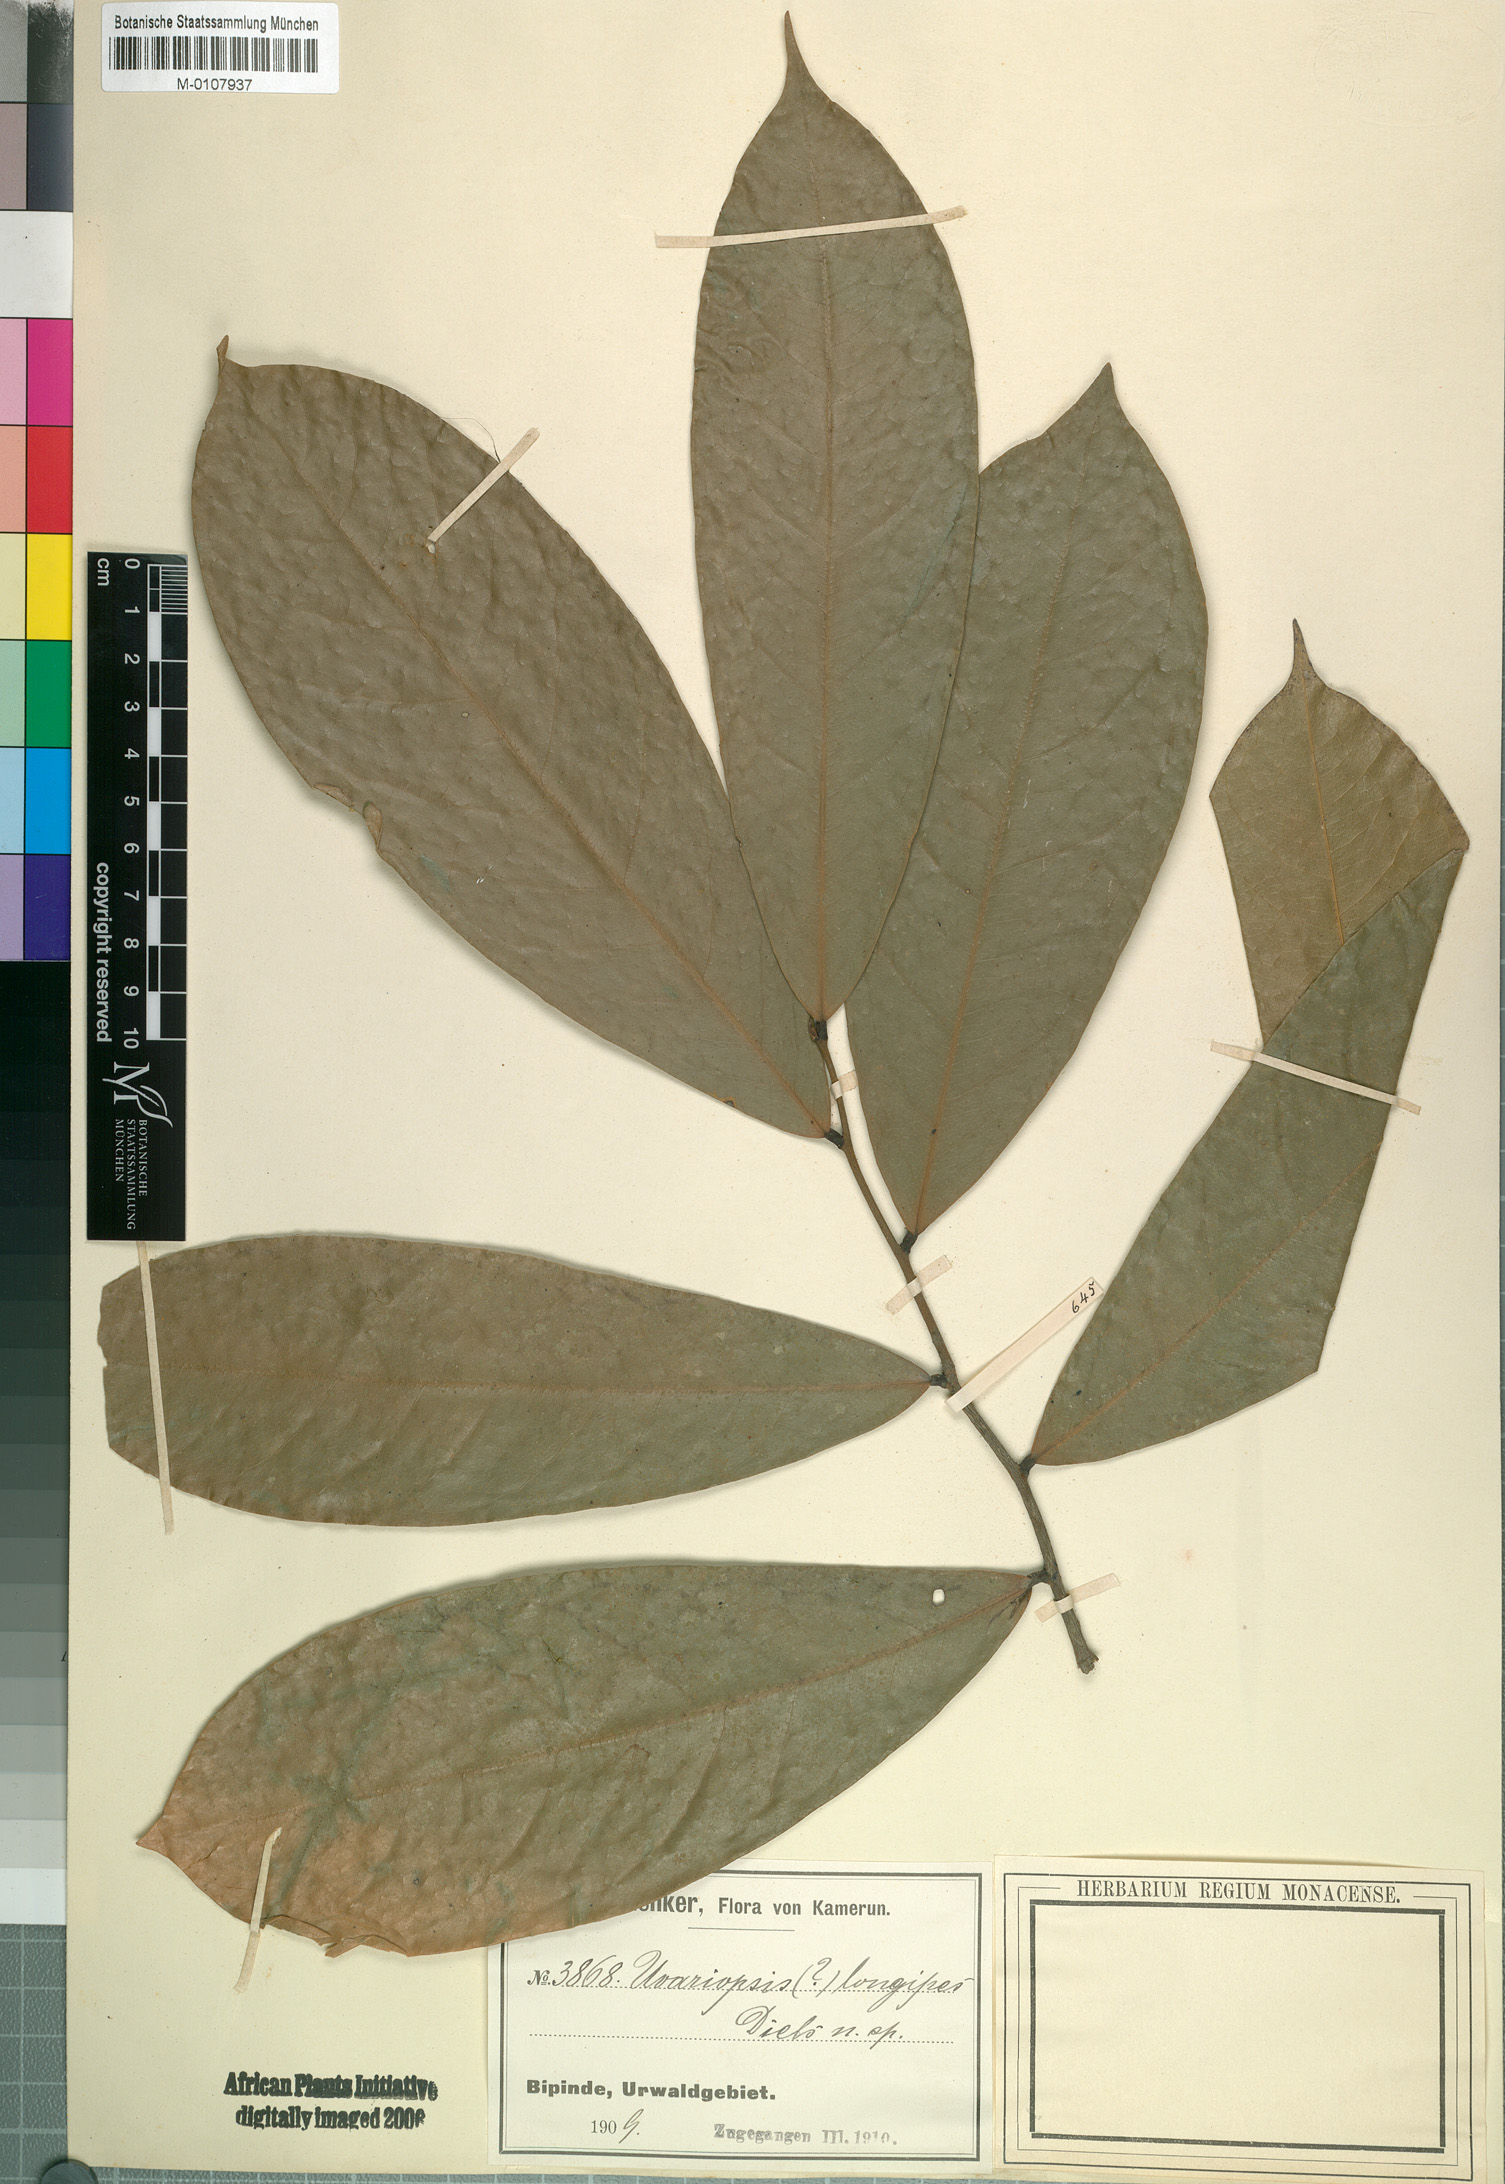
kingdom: Plantae
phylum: Tracheophyta
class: Magnoliopsida
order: Magnoliales
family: Annonaceae
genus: Uvariopsis
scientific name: Uvariopsis dioica
